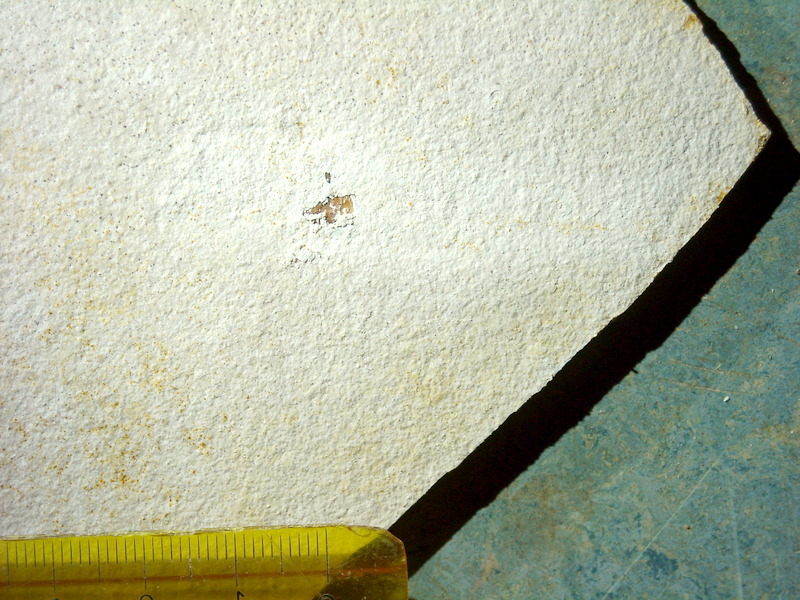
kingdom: Animalia
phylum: Chordata
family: Ascalaboidae
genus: Ebertichthys
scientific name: Ebertichthys ettlingensis
